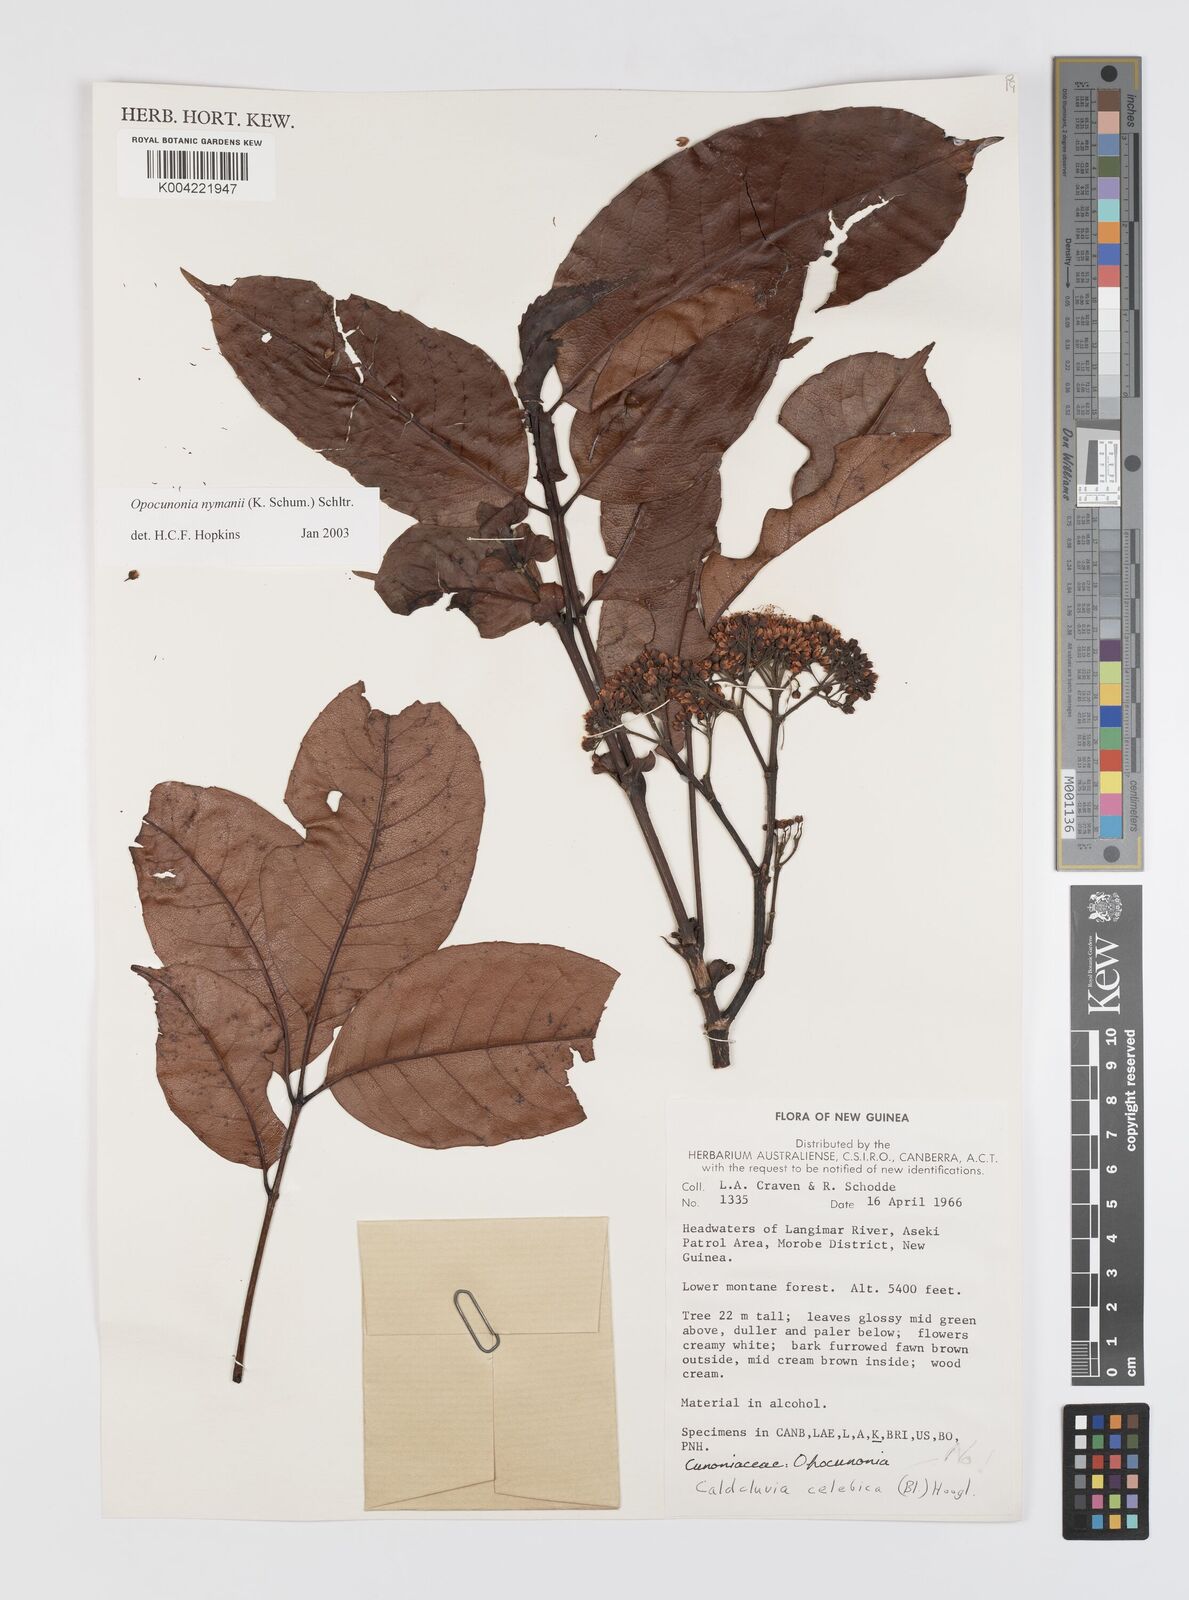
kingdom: Plantae
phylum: Tracheophyta
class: Magnoliopsida
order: Oxalidales
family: Cunoniaceae
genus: Opocunonia
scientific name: Opocunonia nymanii
